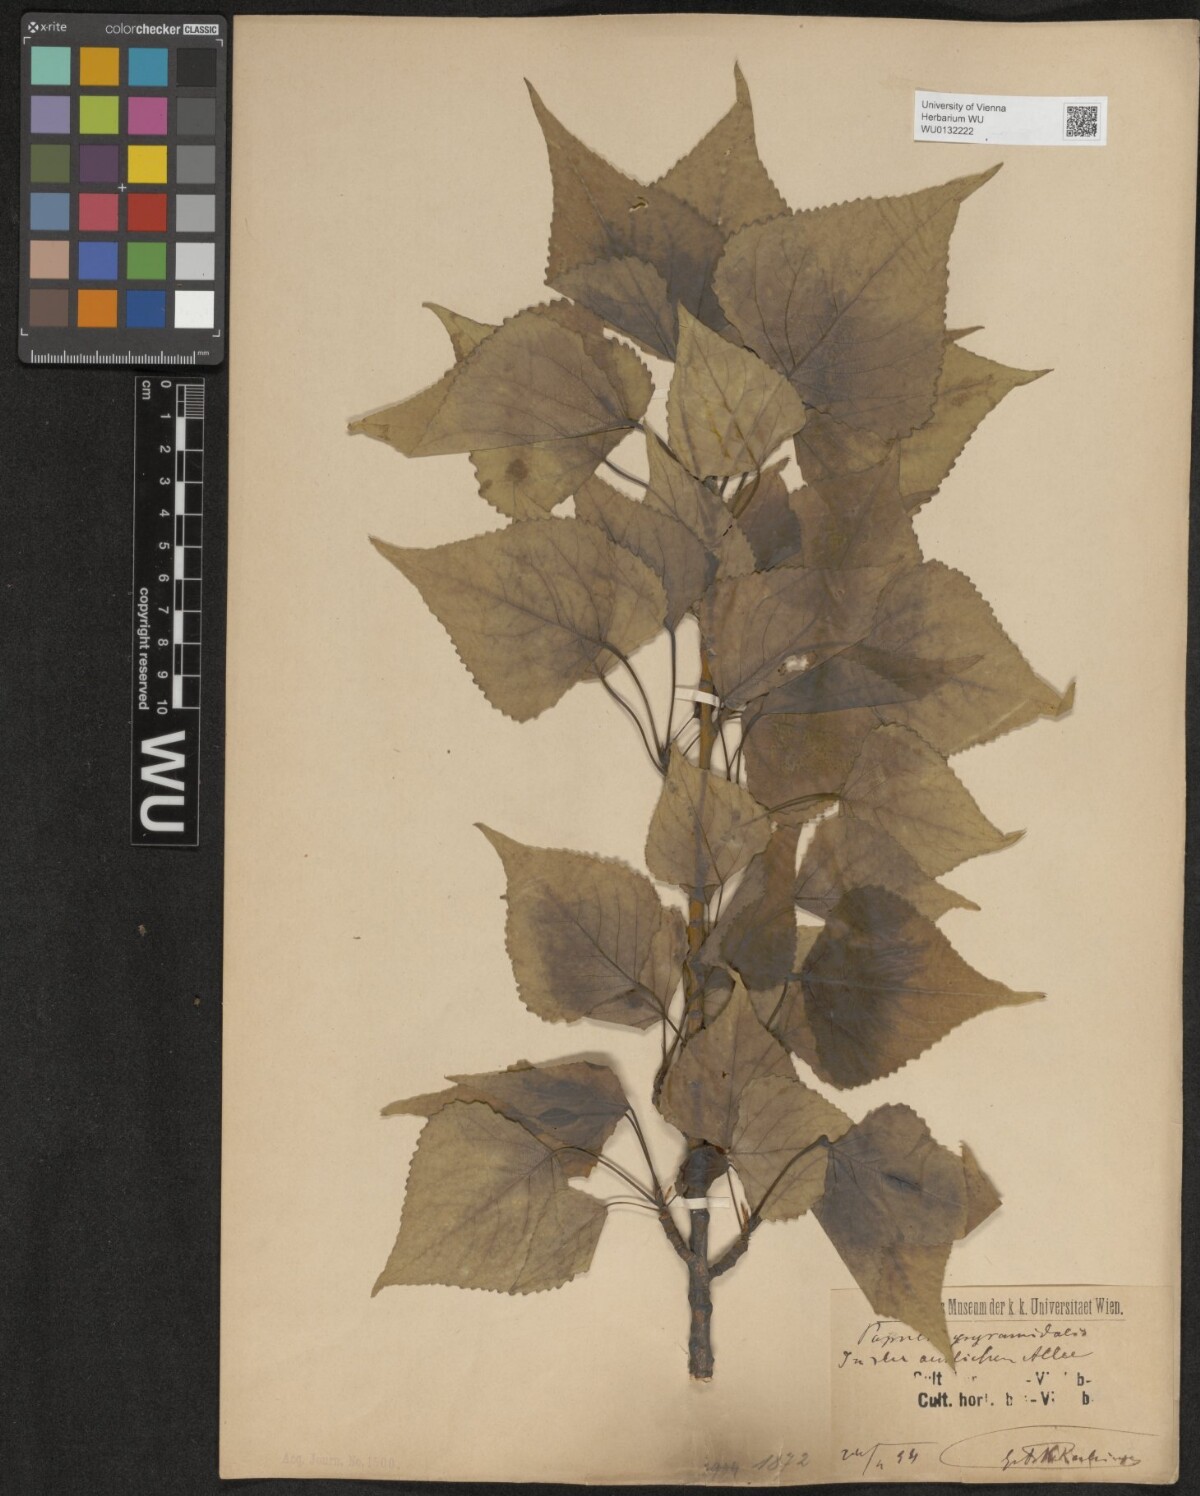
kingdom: Plantae
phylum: Tracheophyta
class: Magnoliopsida
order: Malpighiales
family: Salicaceae
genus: Populus
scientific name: Populus nigra
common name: Black poplar
